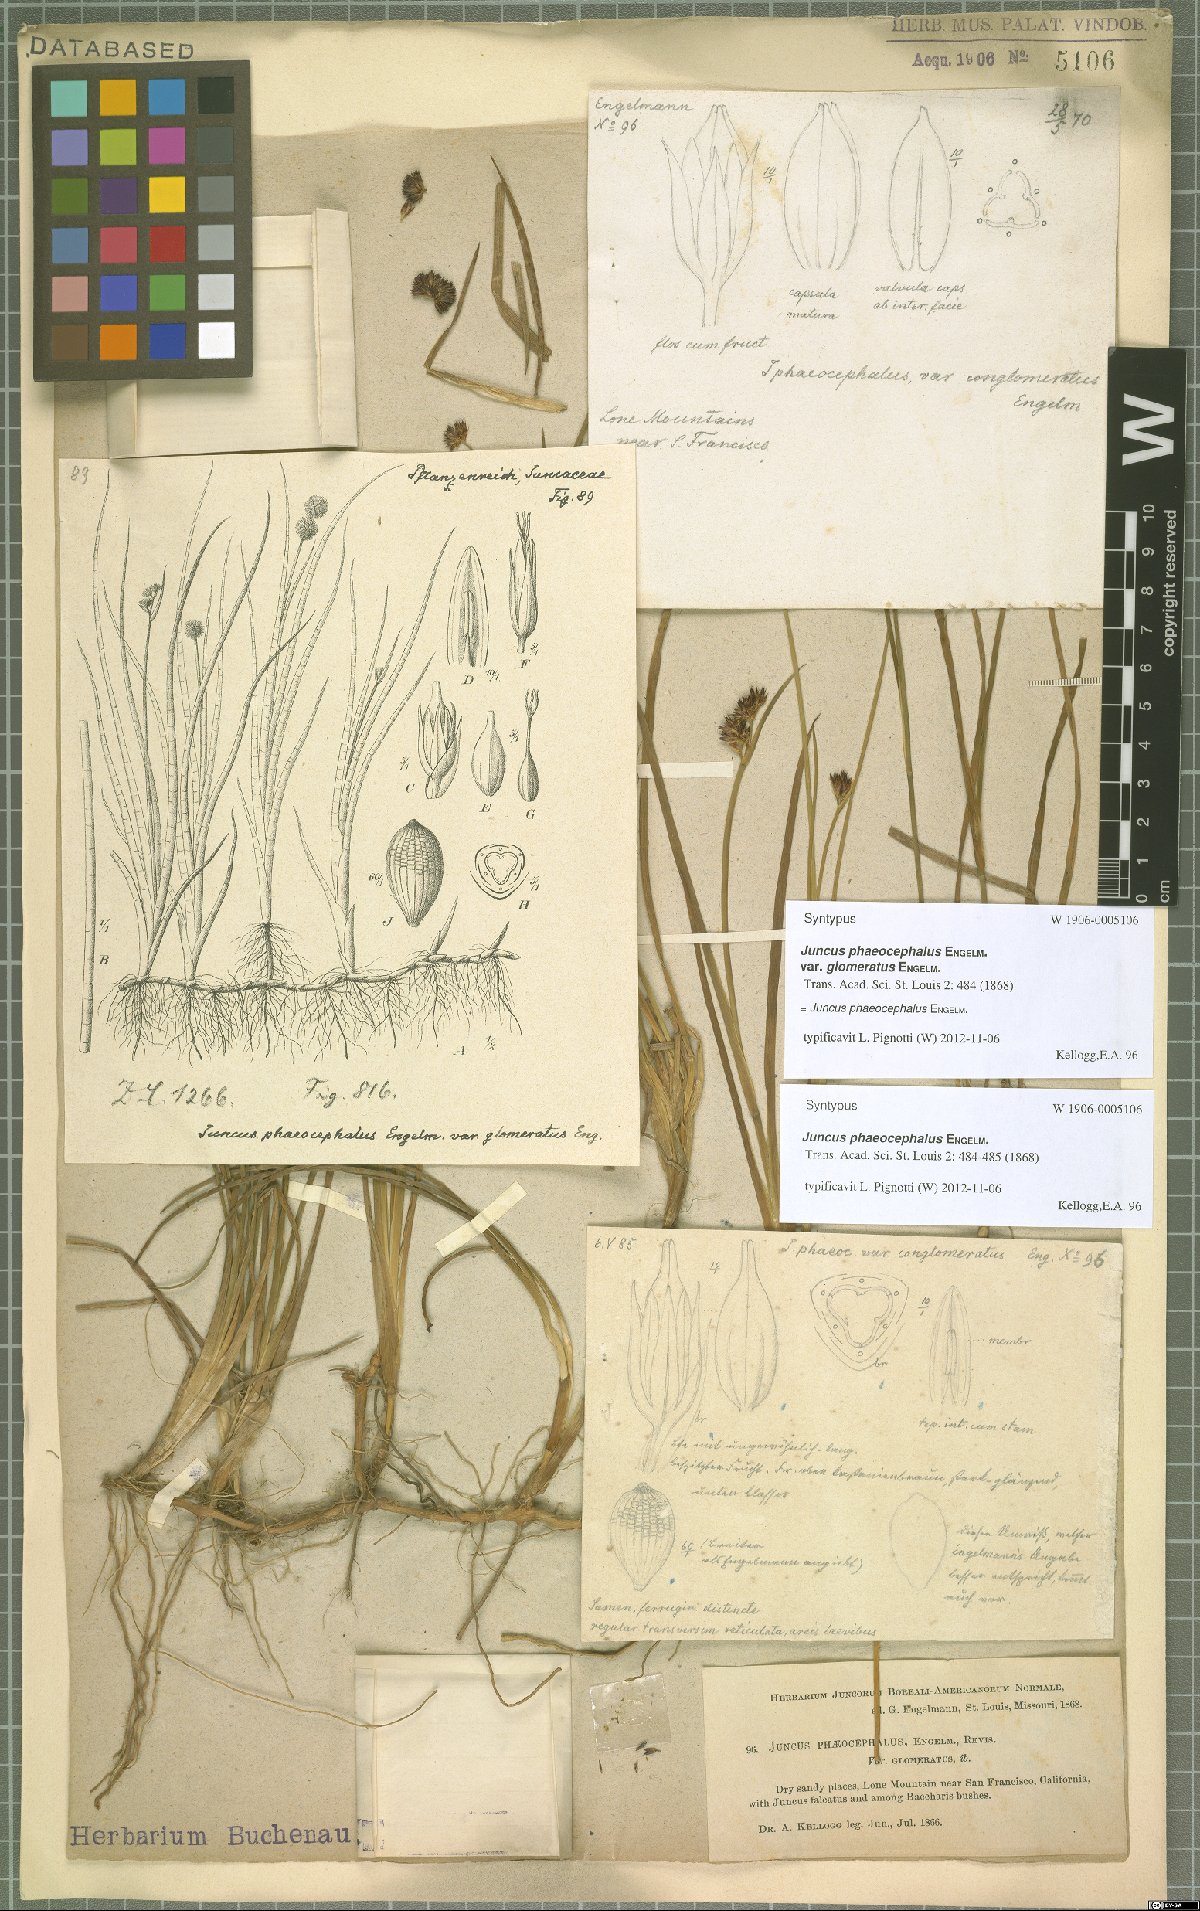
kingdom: Plantae
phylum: Tracheophyta
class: Liliopsida
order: Poales
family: Juncaceae
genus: Juncus
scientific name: Juncus phaeocephalus
